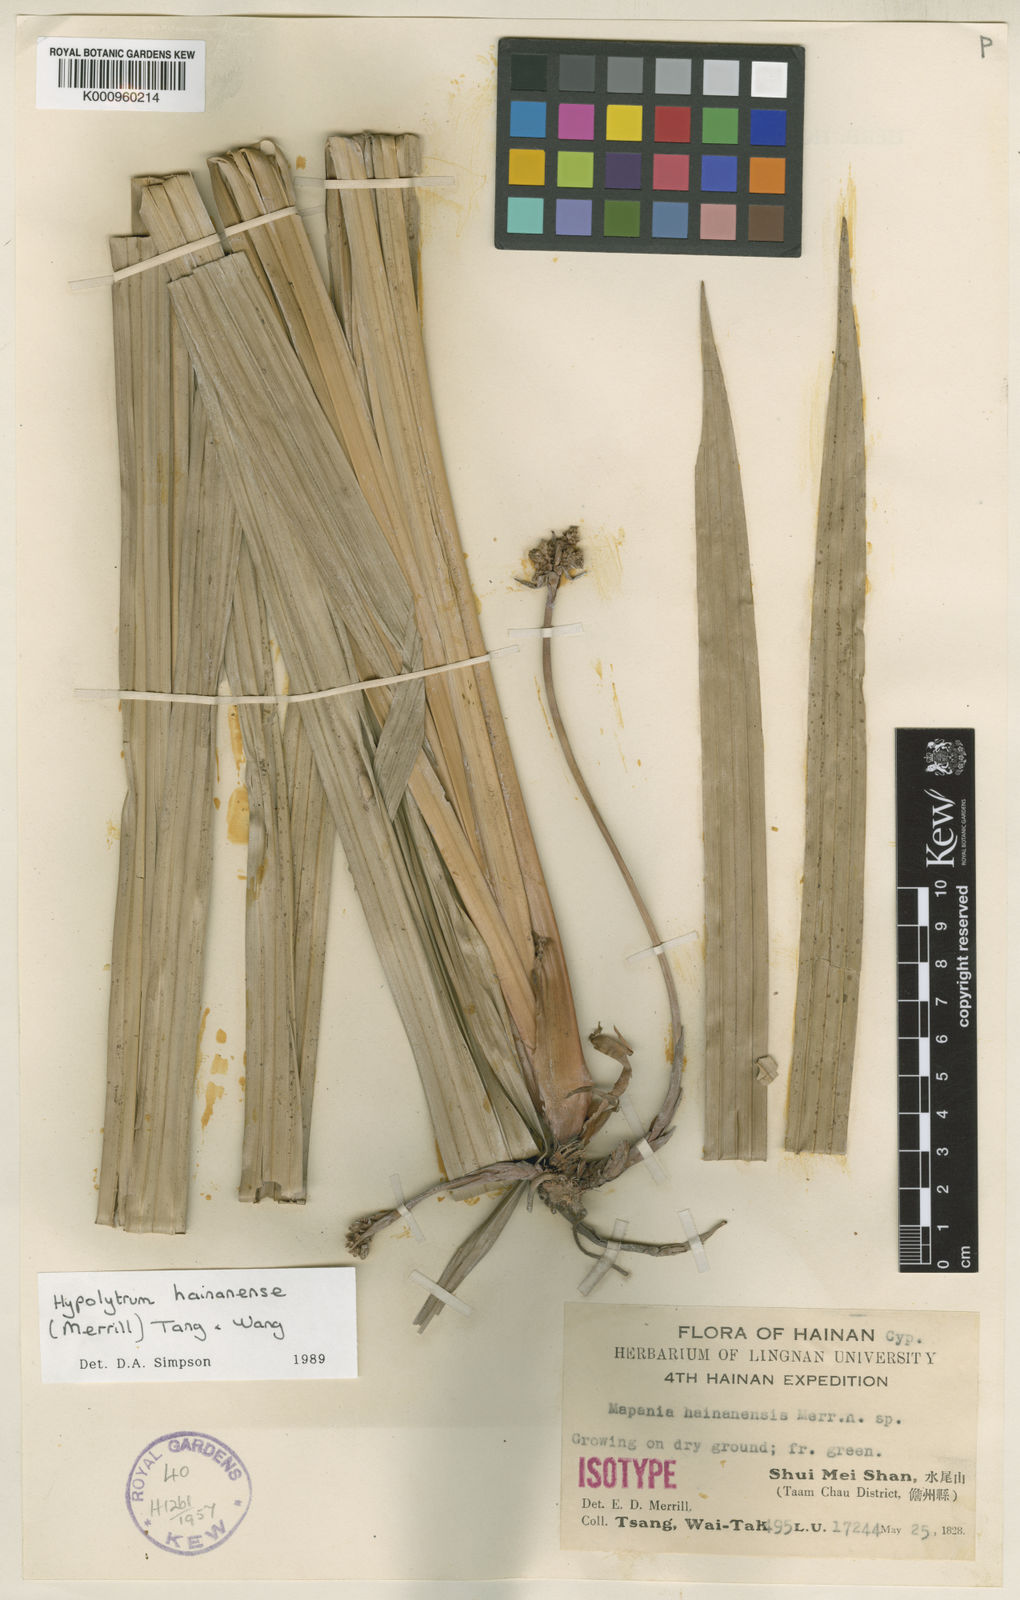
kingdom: Plantae
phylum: Tracheophyta
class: Liliopsida
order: Poales
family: Cyperaceae
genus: Hypolytrum
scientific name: Hypolytrum hainanense
